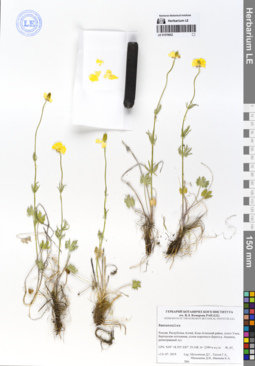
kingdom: Plantae
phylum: Tracheophyta
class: Magnoliopsida
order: Ranunculales
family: Ranunculaceae
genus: Ranunculus
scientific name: Ranunculus pedatifidus
